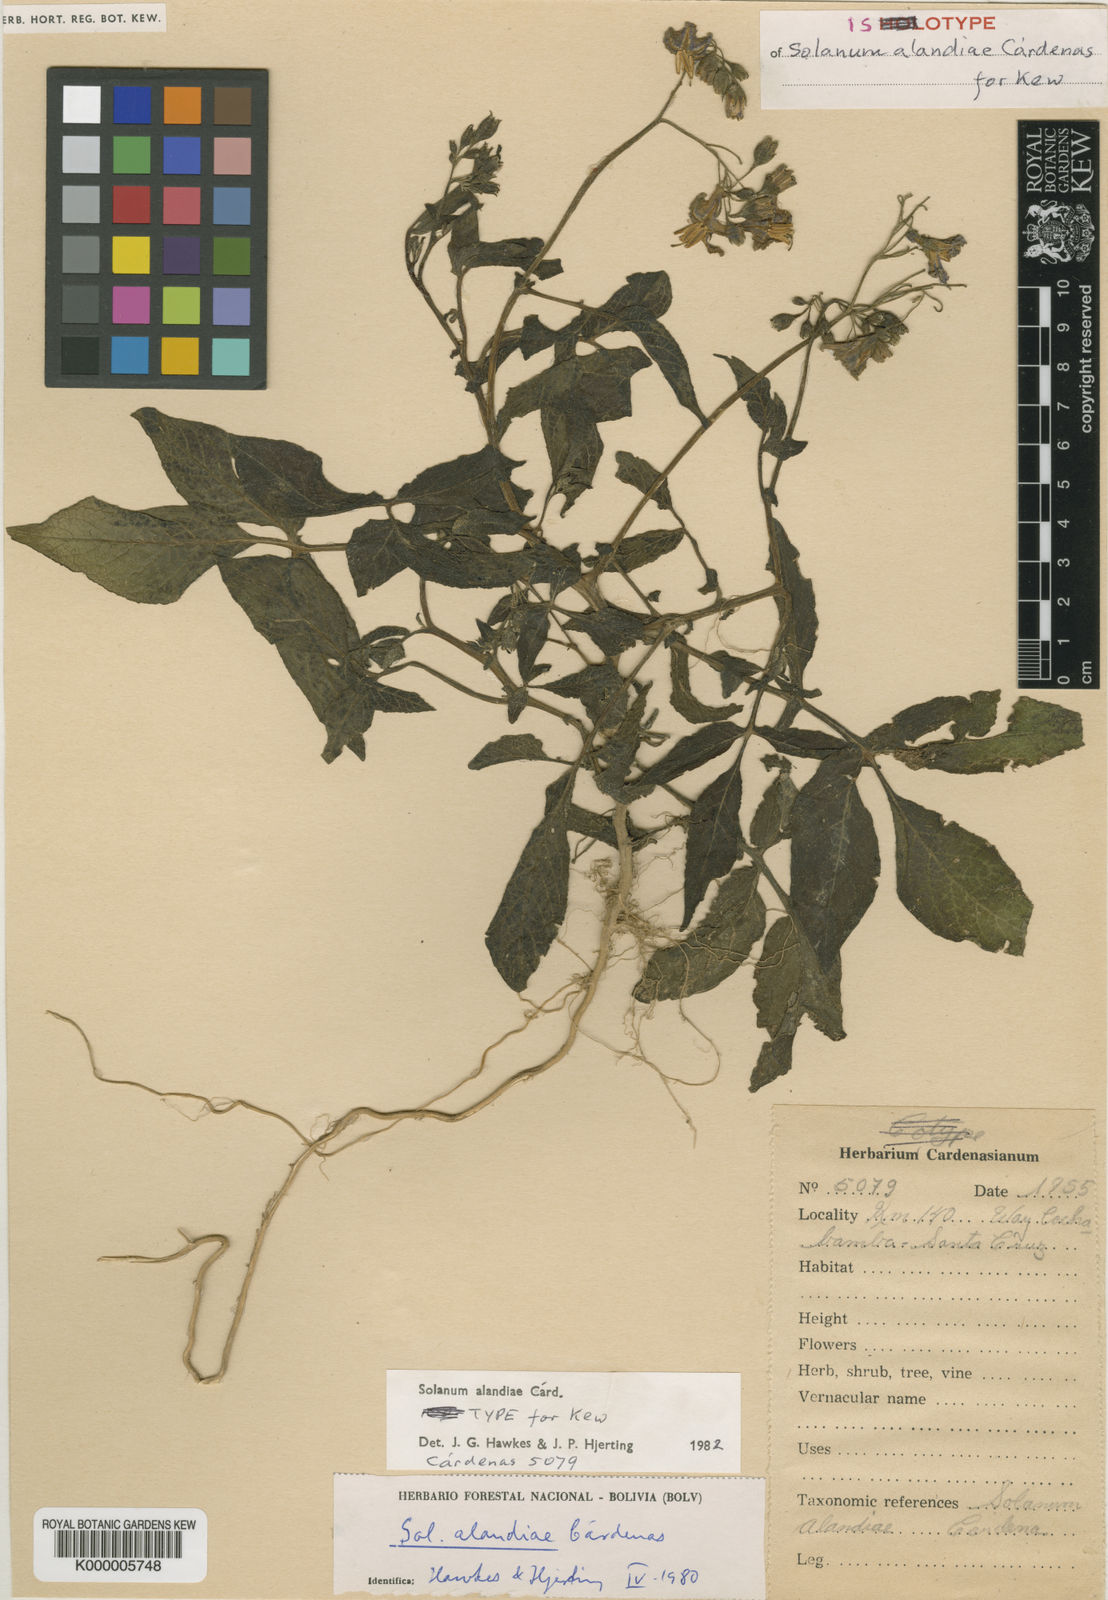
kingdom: Plantae
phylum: Tracheophyta
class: Magnoliopsida
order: Solanales
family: Solanaceae
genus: Solanum
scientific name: Solanum brevicaule
